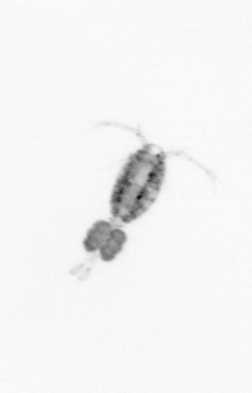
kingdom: Animalia
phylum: Arthropoda
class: Copepoda
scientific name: Copepoda
